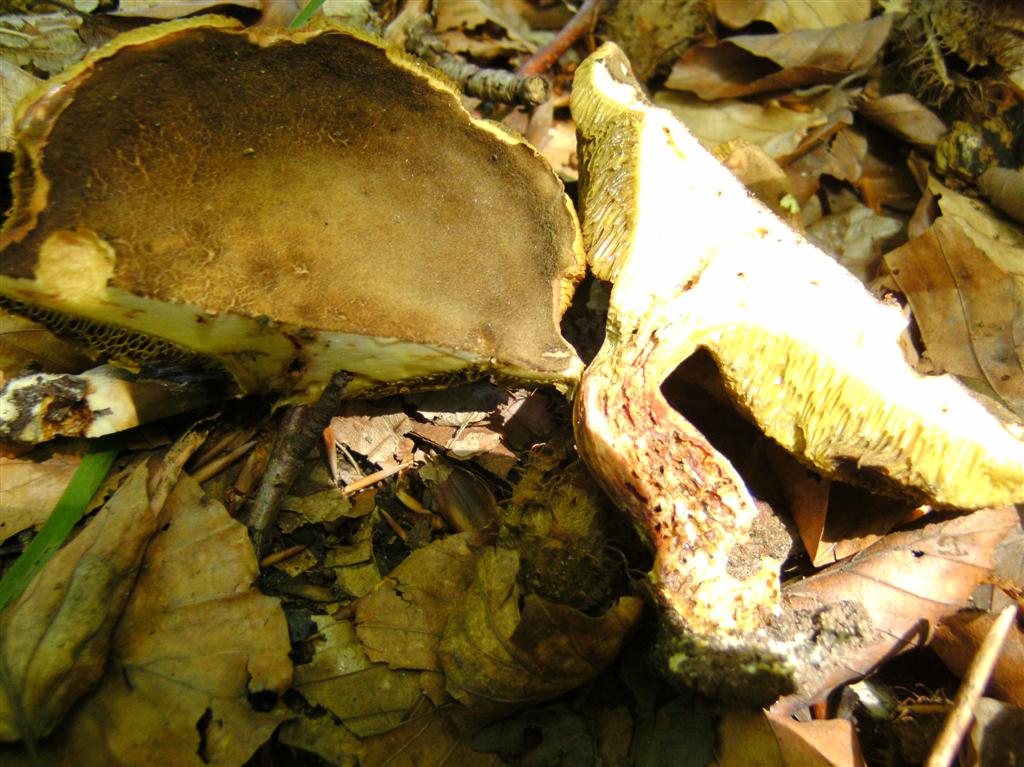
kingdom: Fungi
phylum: Basidiomycota
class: Agaricomycetes
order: Boletales
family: Boletaceae
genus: Xerocomellus
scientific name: Xerocomellus chrysenteron
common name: rødsprukken rørhat
